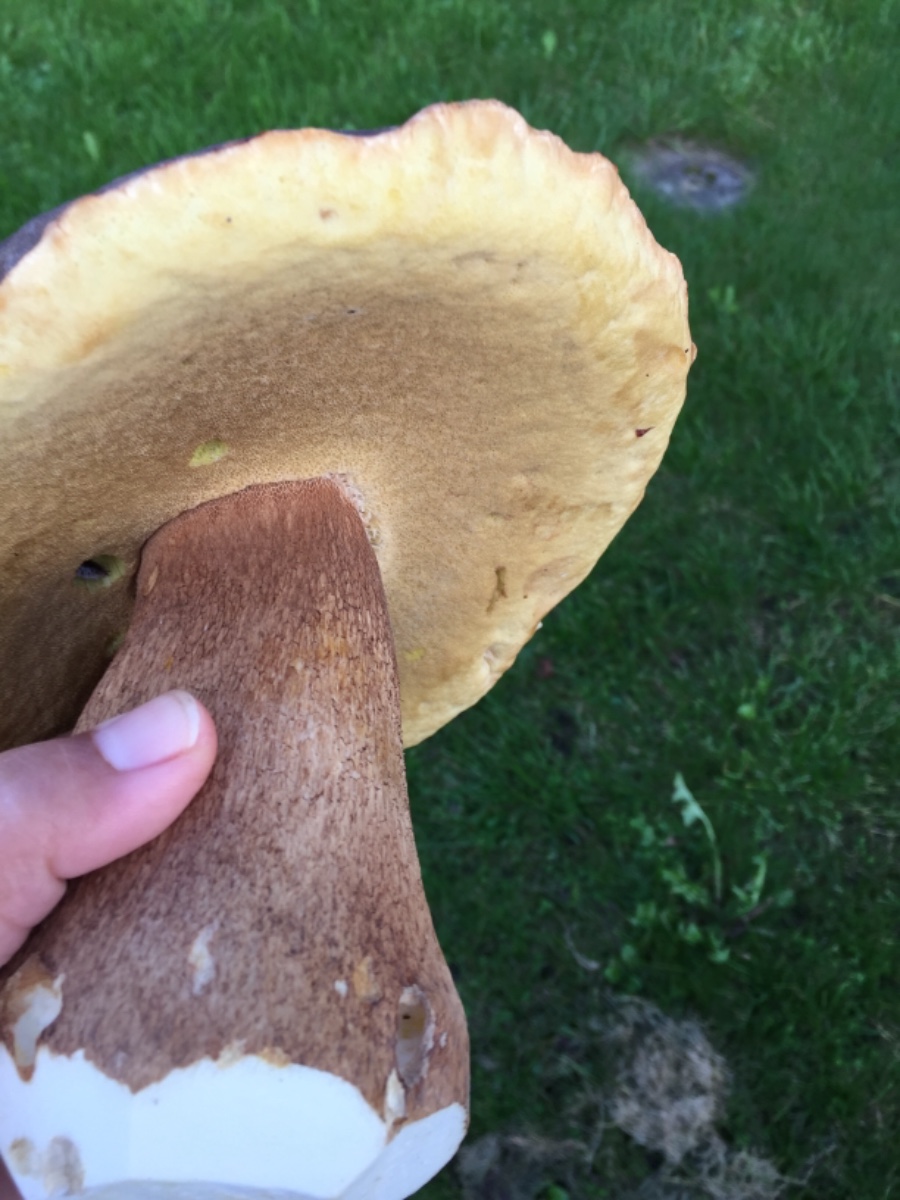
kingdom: Fungi
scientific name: Fungi
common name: bronze-rørhat
